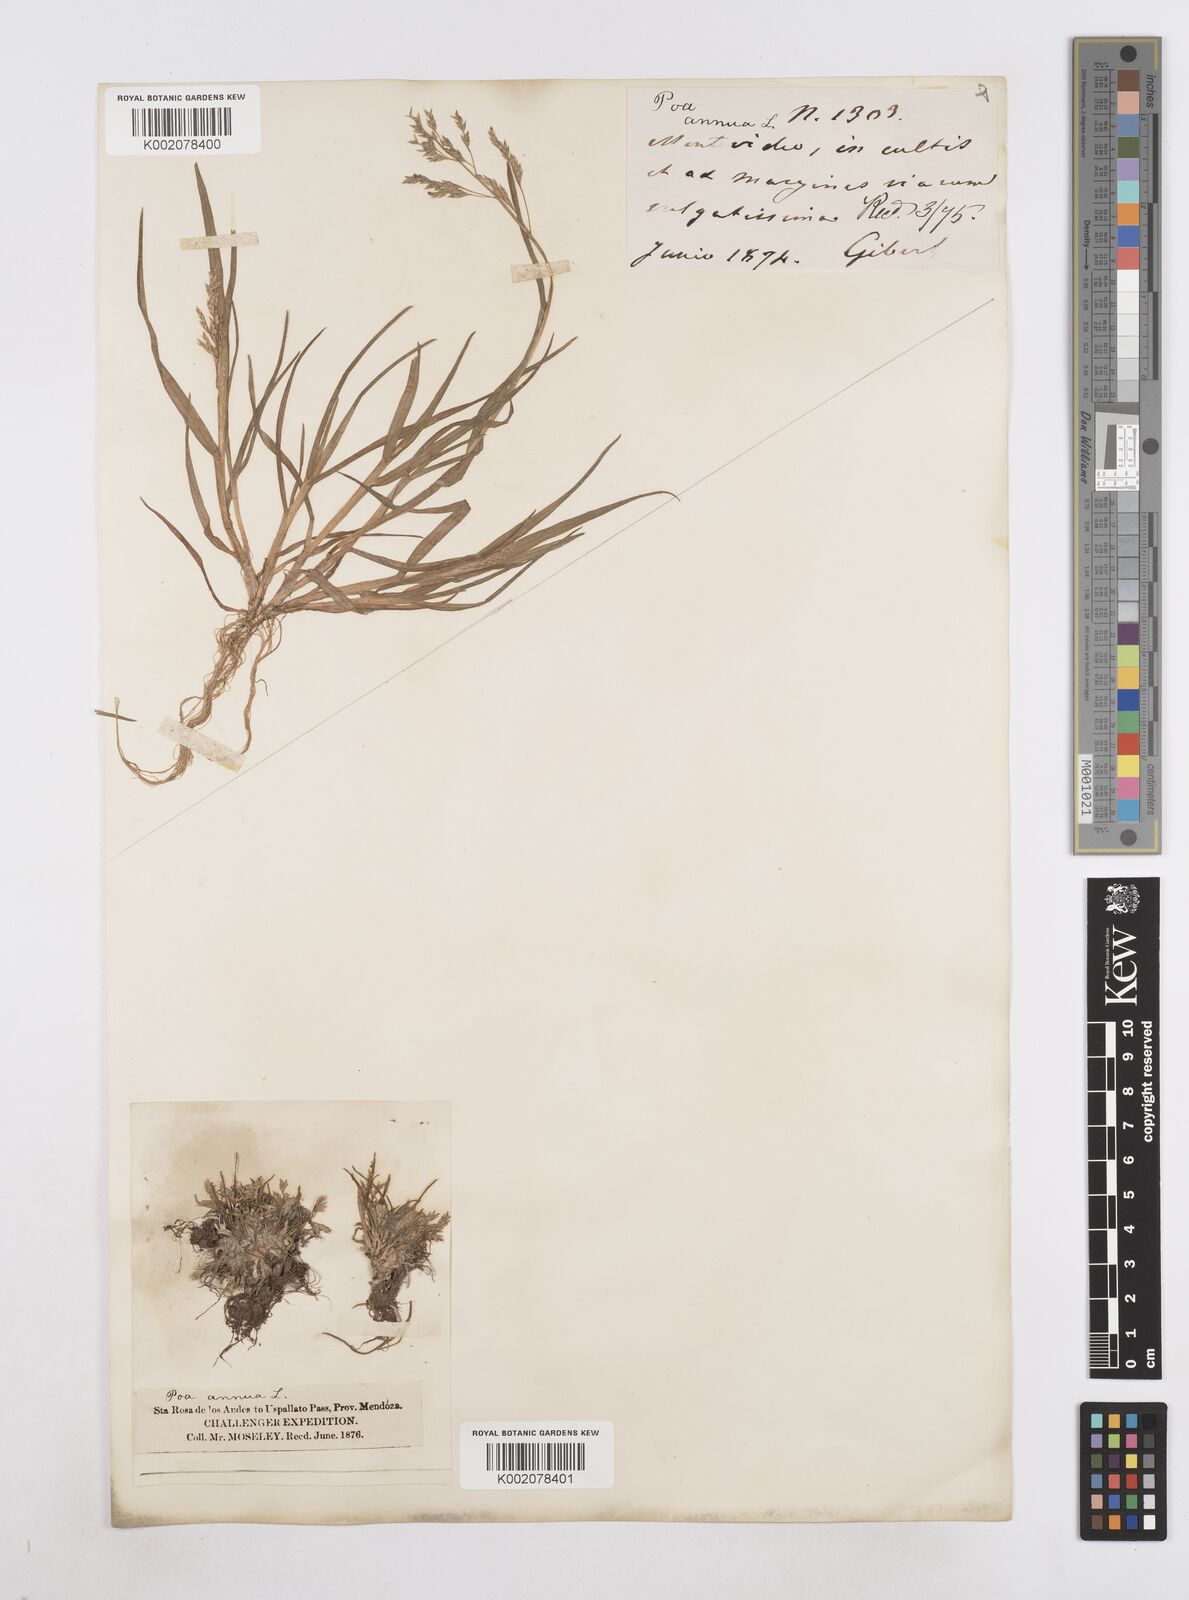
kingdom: Plantae
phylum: Tracheophyta
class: Liliopsida
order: Poales
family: Poaceae
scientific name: Poaceae
